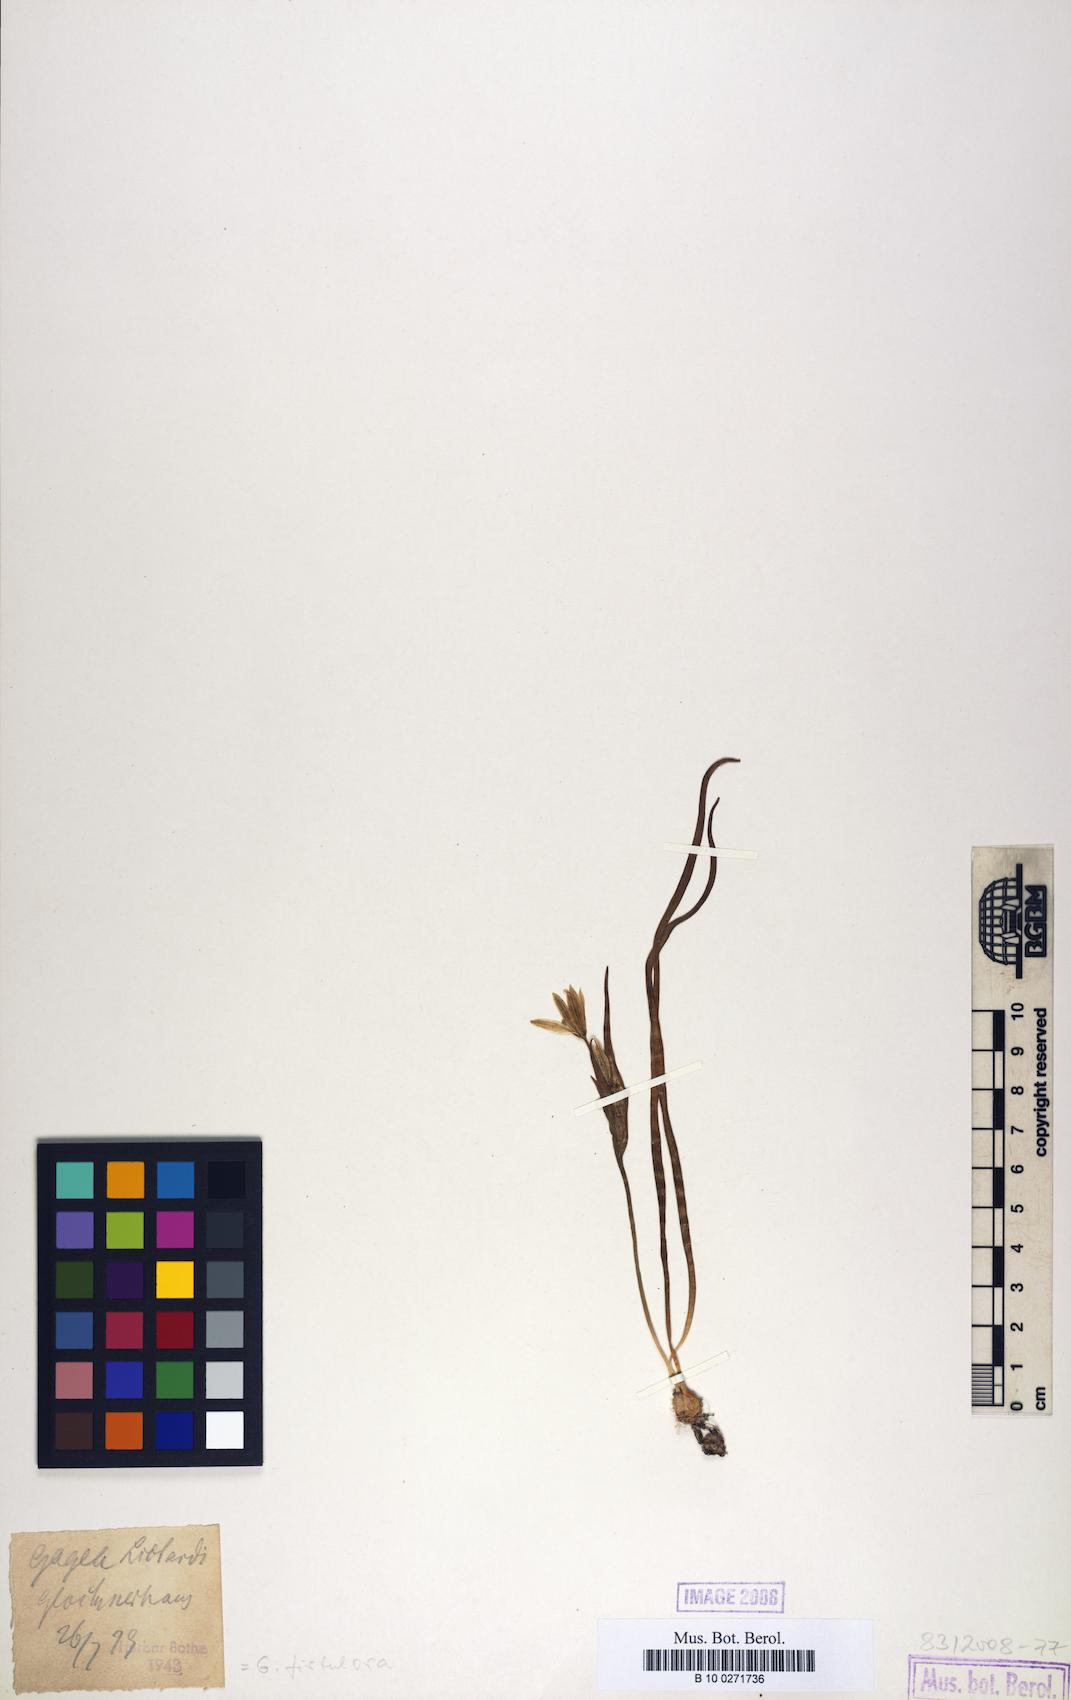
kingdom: Plantae
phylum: Tracheophyta
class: Liliopsida
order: Liliales
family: Liliaceae
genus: Gagea
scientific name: Gagea bohemica
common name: Early star-of-bethlehem
